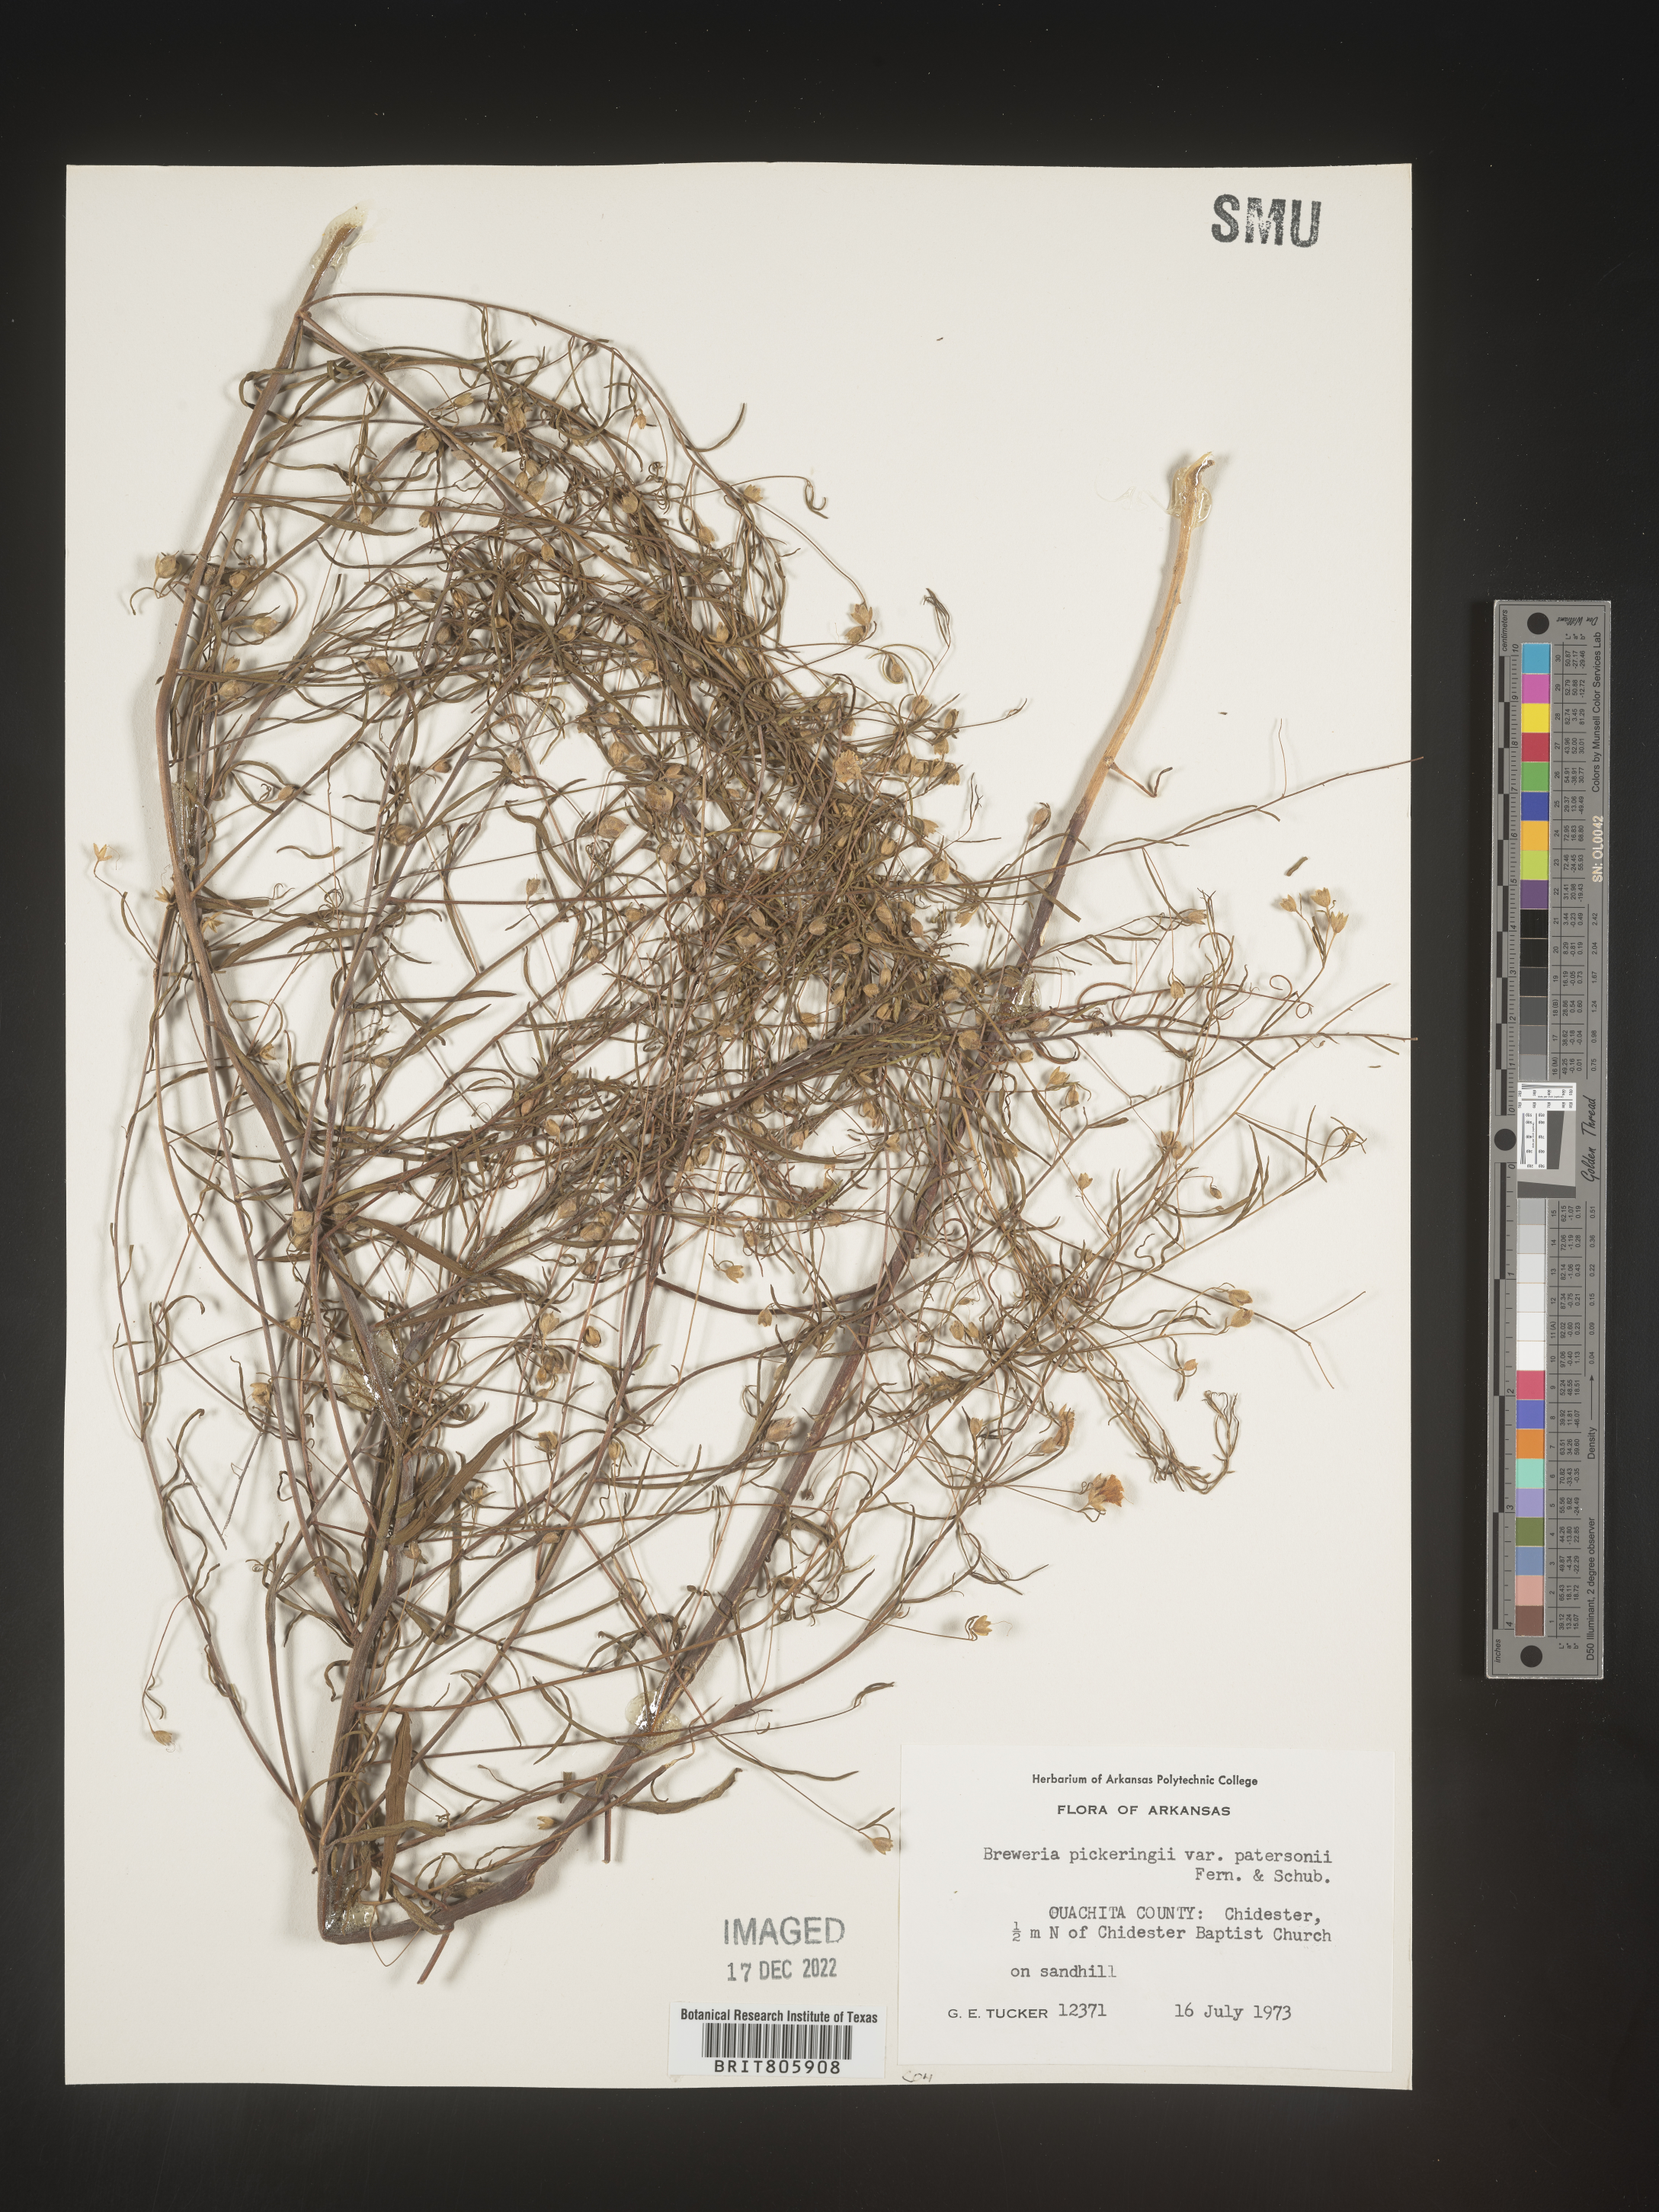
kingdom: Plantae
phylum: Tracheophyta
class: Magnoliopsida
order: Solanales
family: Convolvulaceae
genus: Stylisma
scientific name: Stylisma
